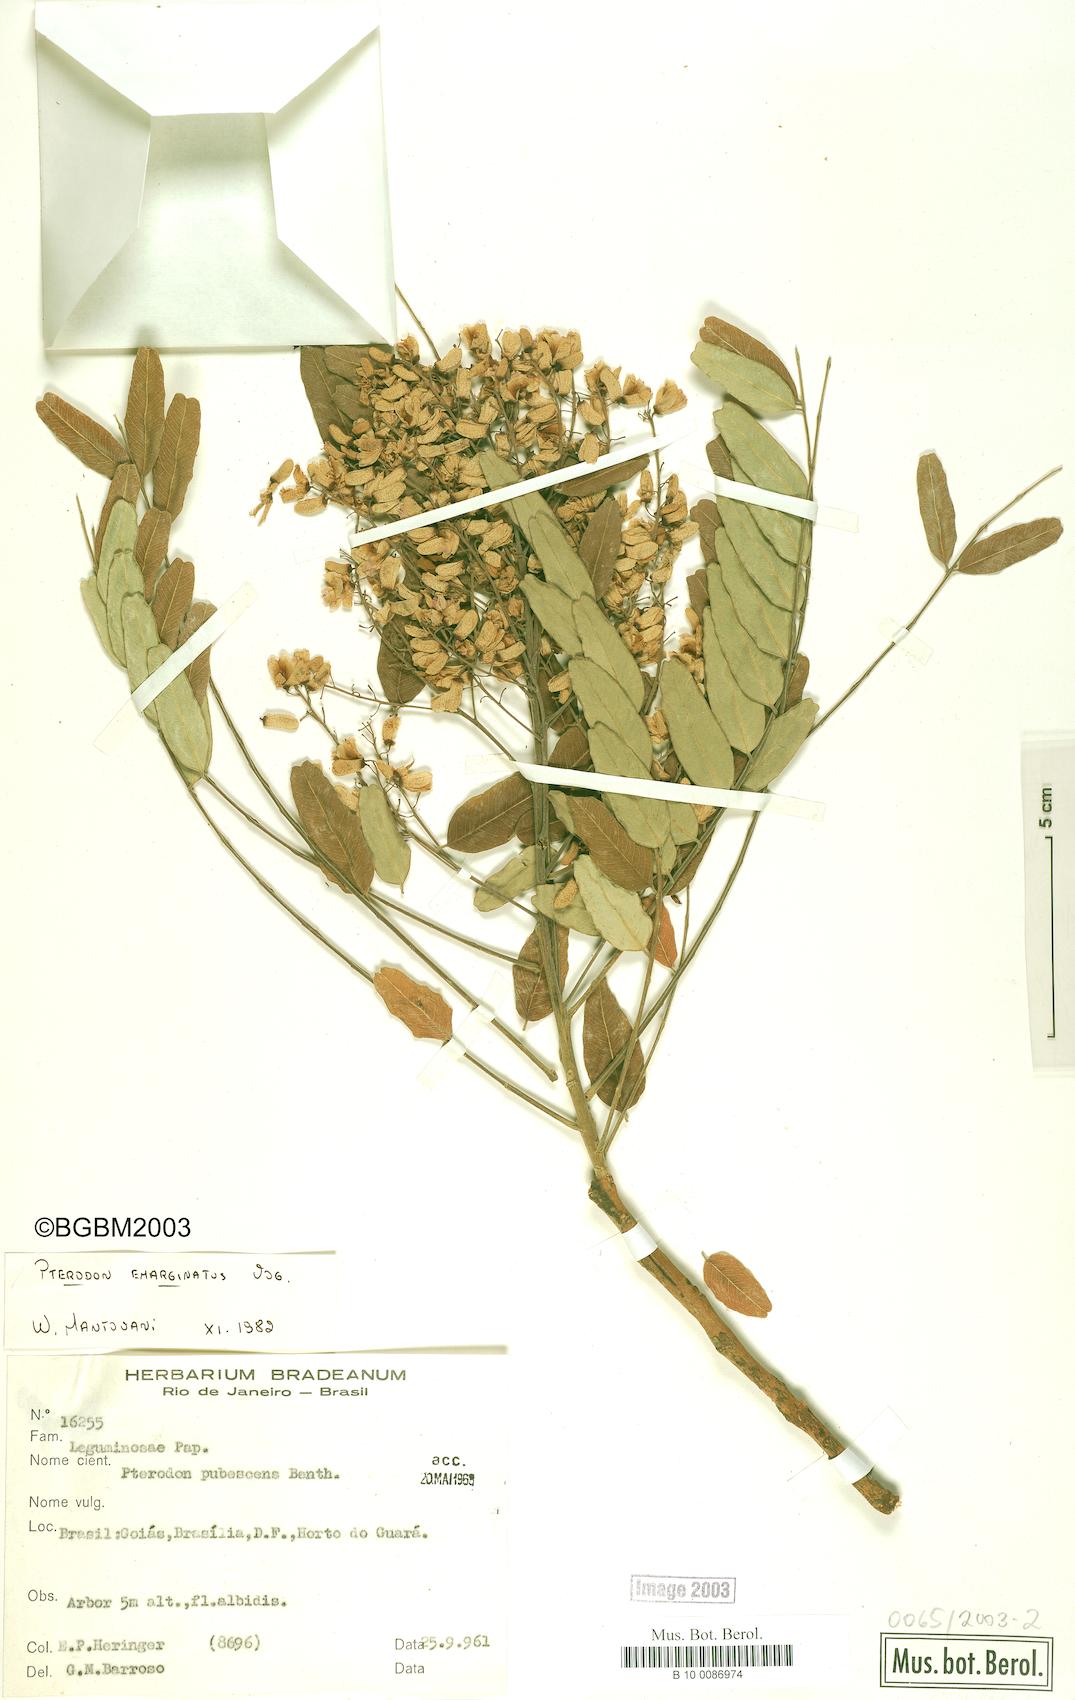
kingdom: Plantae
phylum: Tracheophyta
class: Magnoliopsida
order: Fabales
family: Fabaceae
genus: Pterodon
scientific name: Pterodon emarginatus
